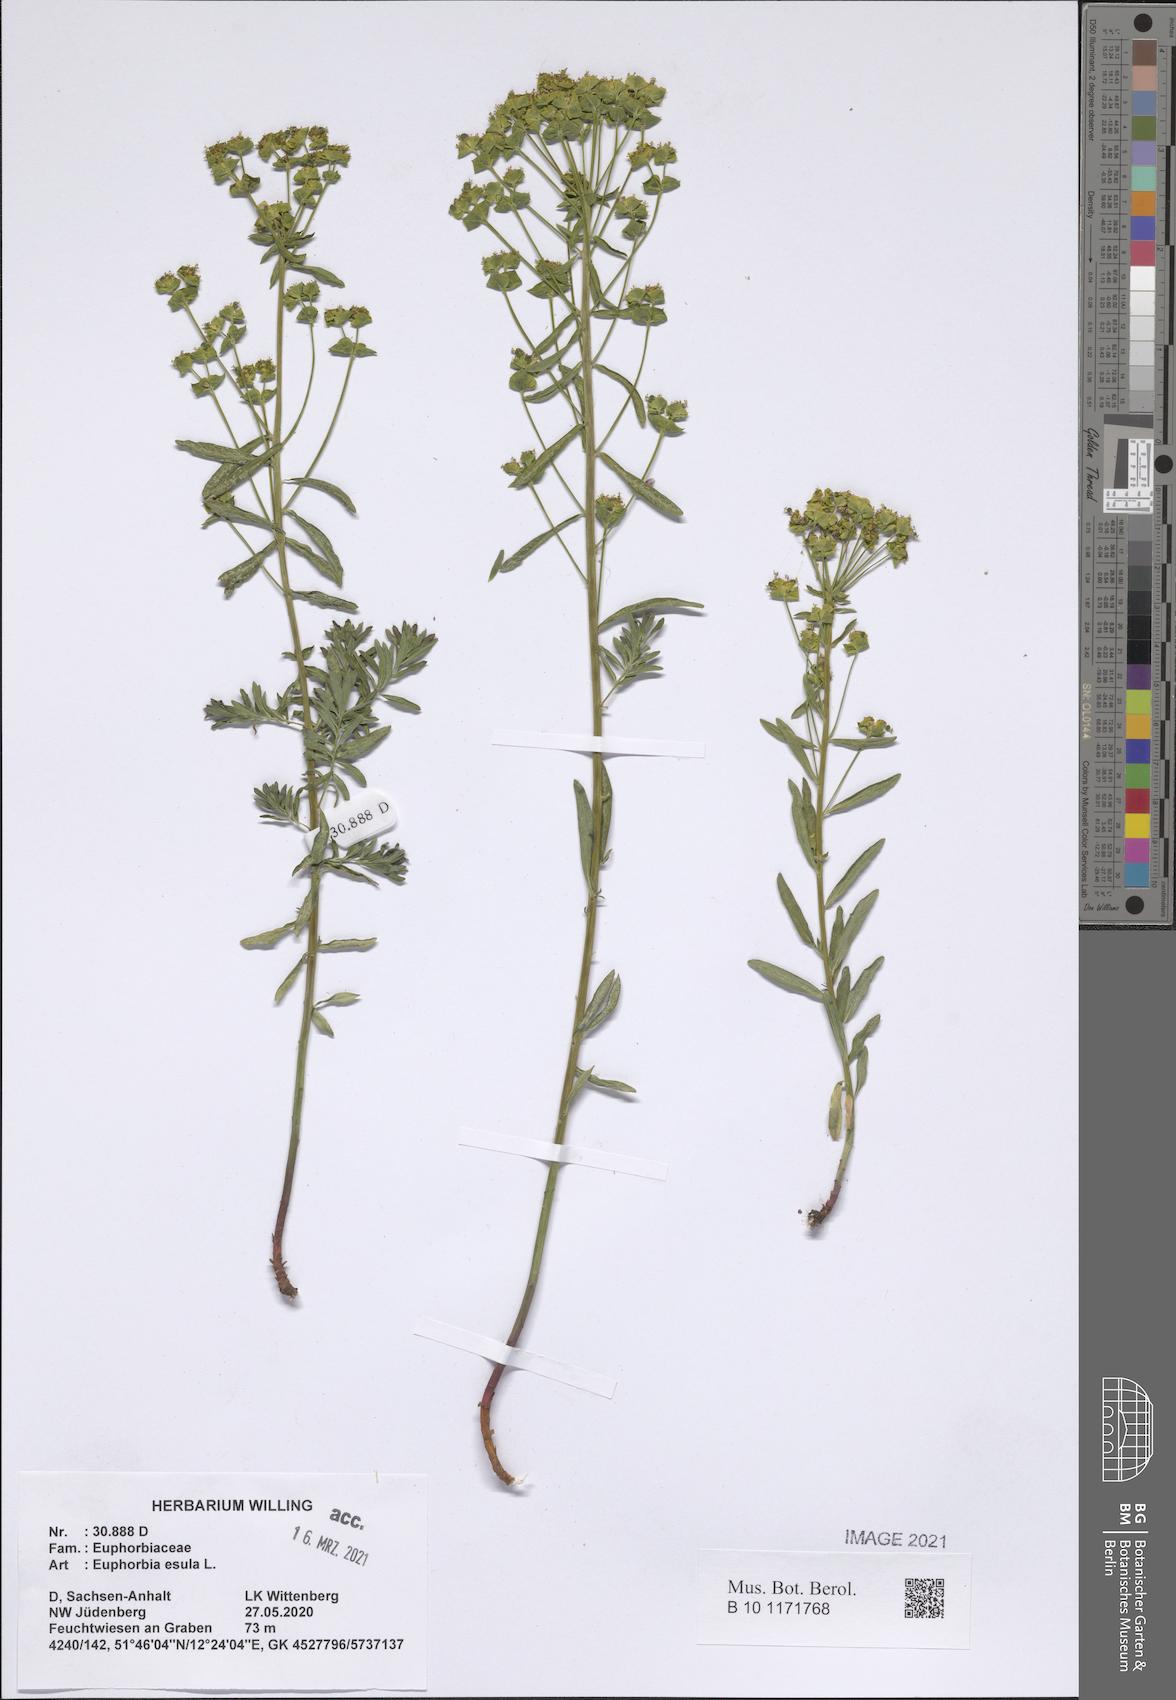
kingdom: Plantae
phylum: Tracheophyta
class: Magnoliopsida
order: Malpighiales
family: Euphorbiaceae
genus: Euphorbia
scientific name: Euphorbia esula
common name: Leafy spurge
